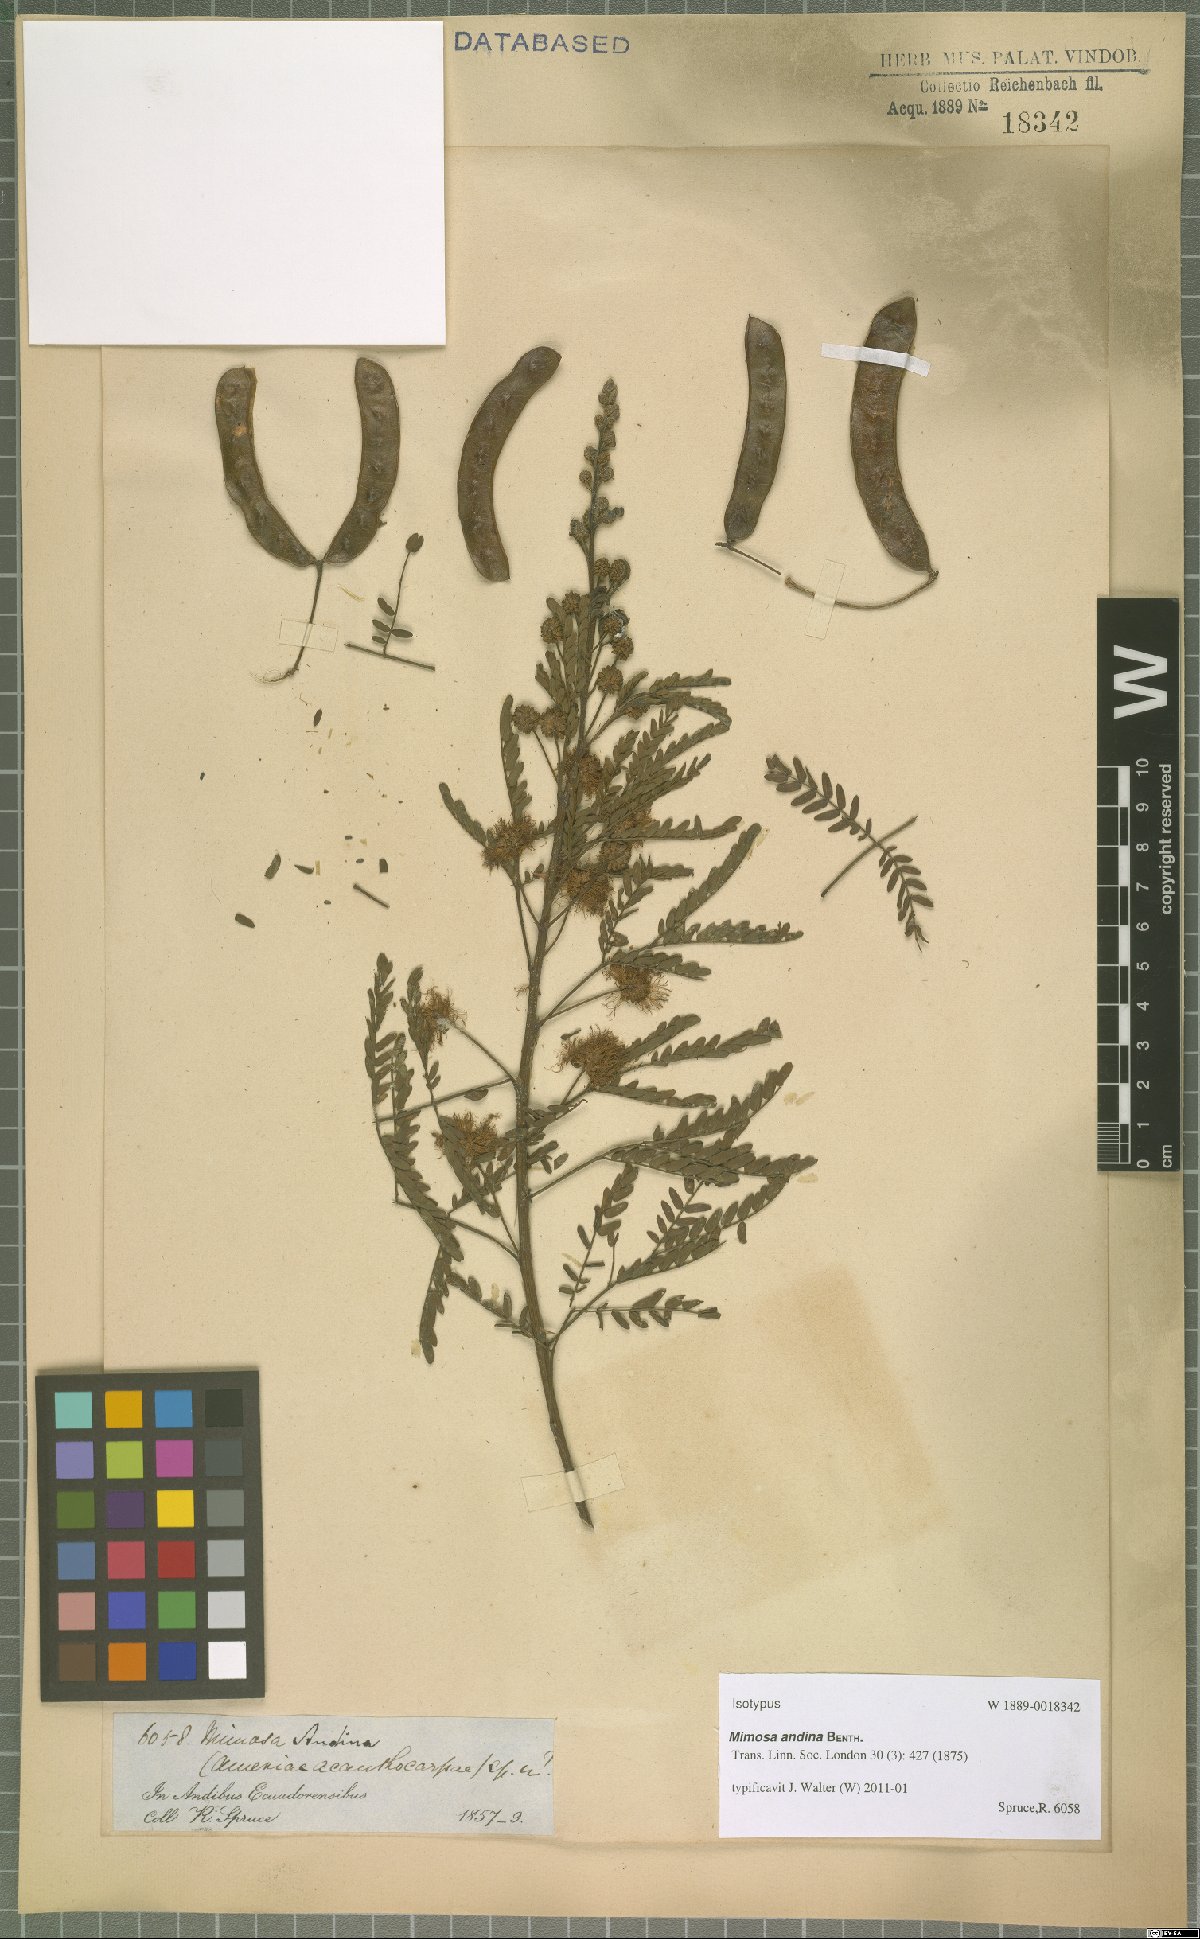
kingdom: Plantae
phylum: Tracheophyta
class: Magnoliopsida
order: Fabales
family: Fabaceae
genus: Mimosa
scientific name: Mimosa andina
